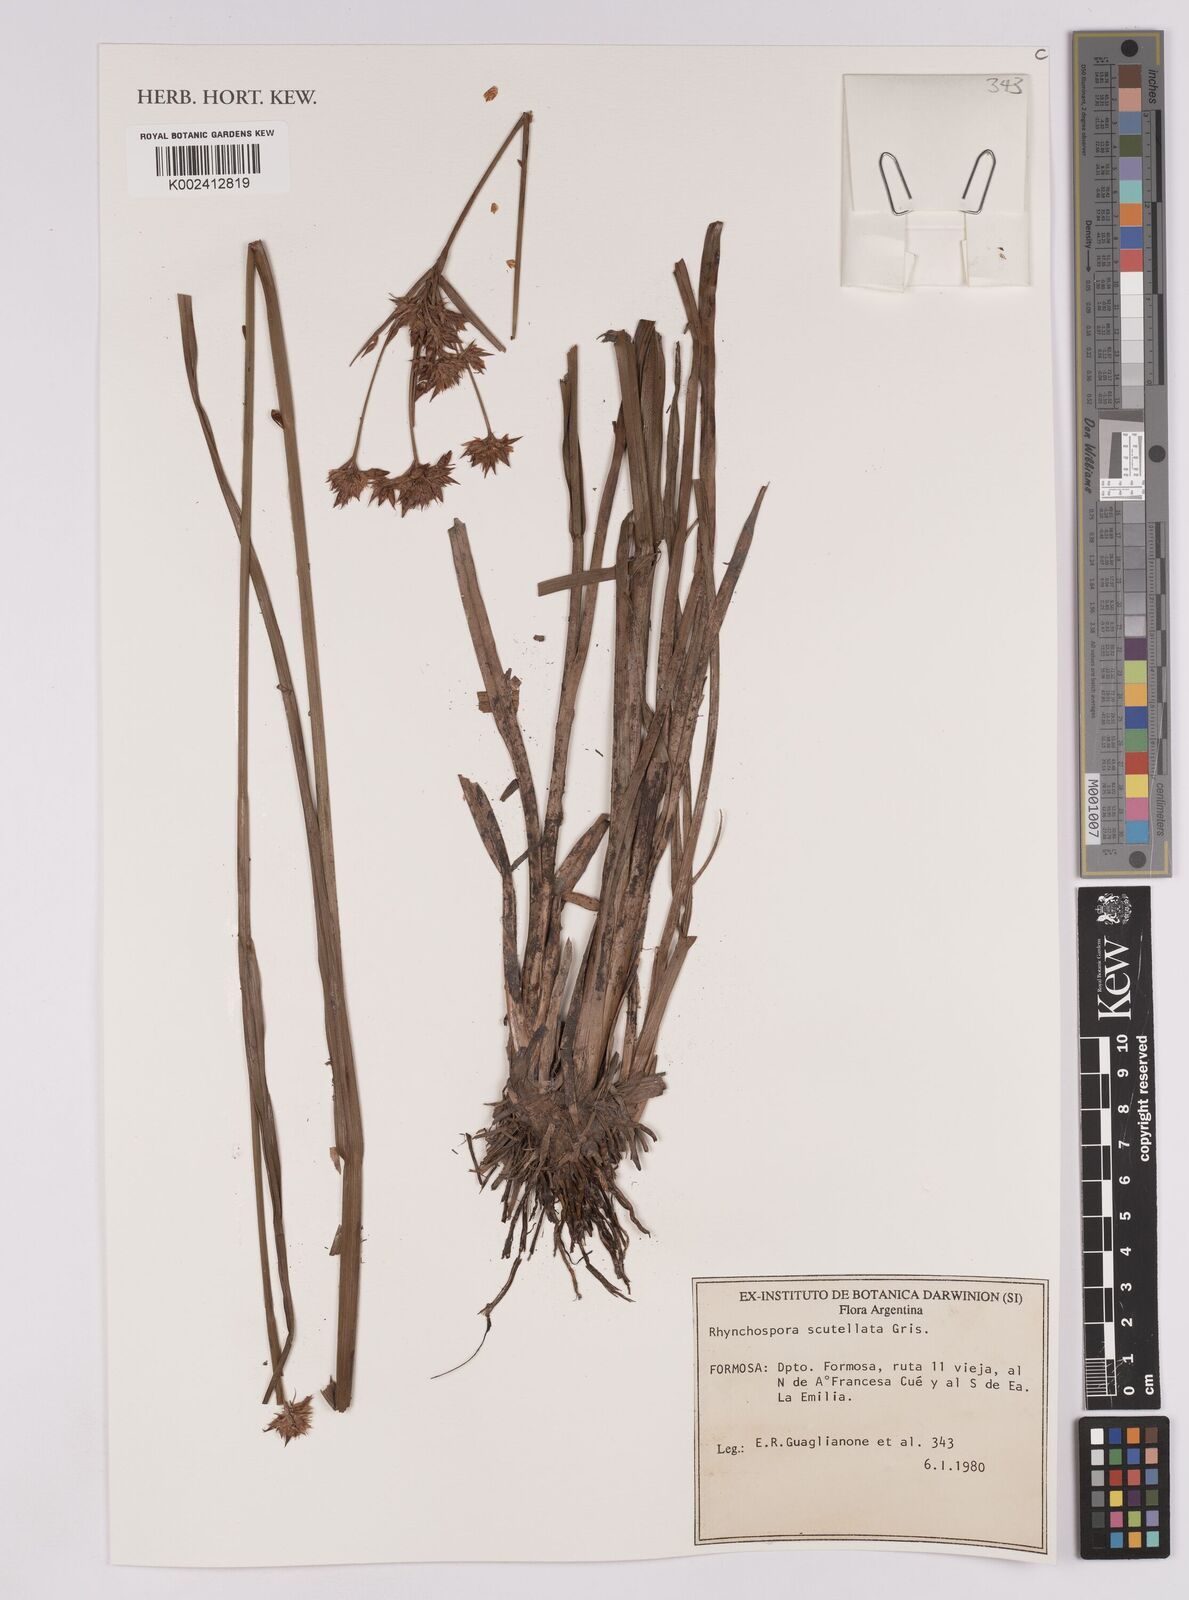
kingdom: Plantae
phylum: Tracheophyta
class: Liliopsida
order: Poales
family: Cyperaceae
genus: Rhynchospora
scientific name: Rhynchospora scutellata
